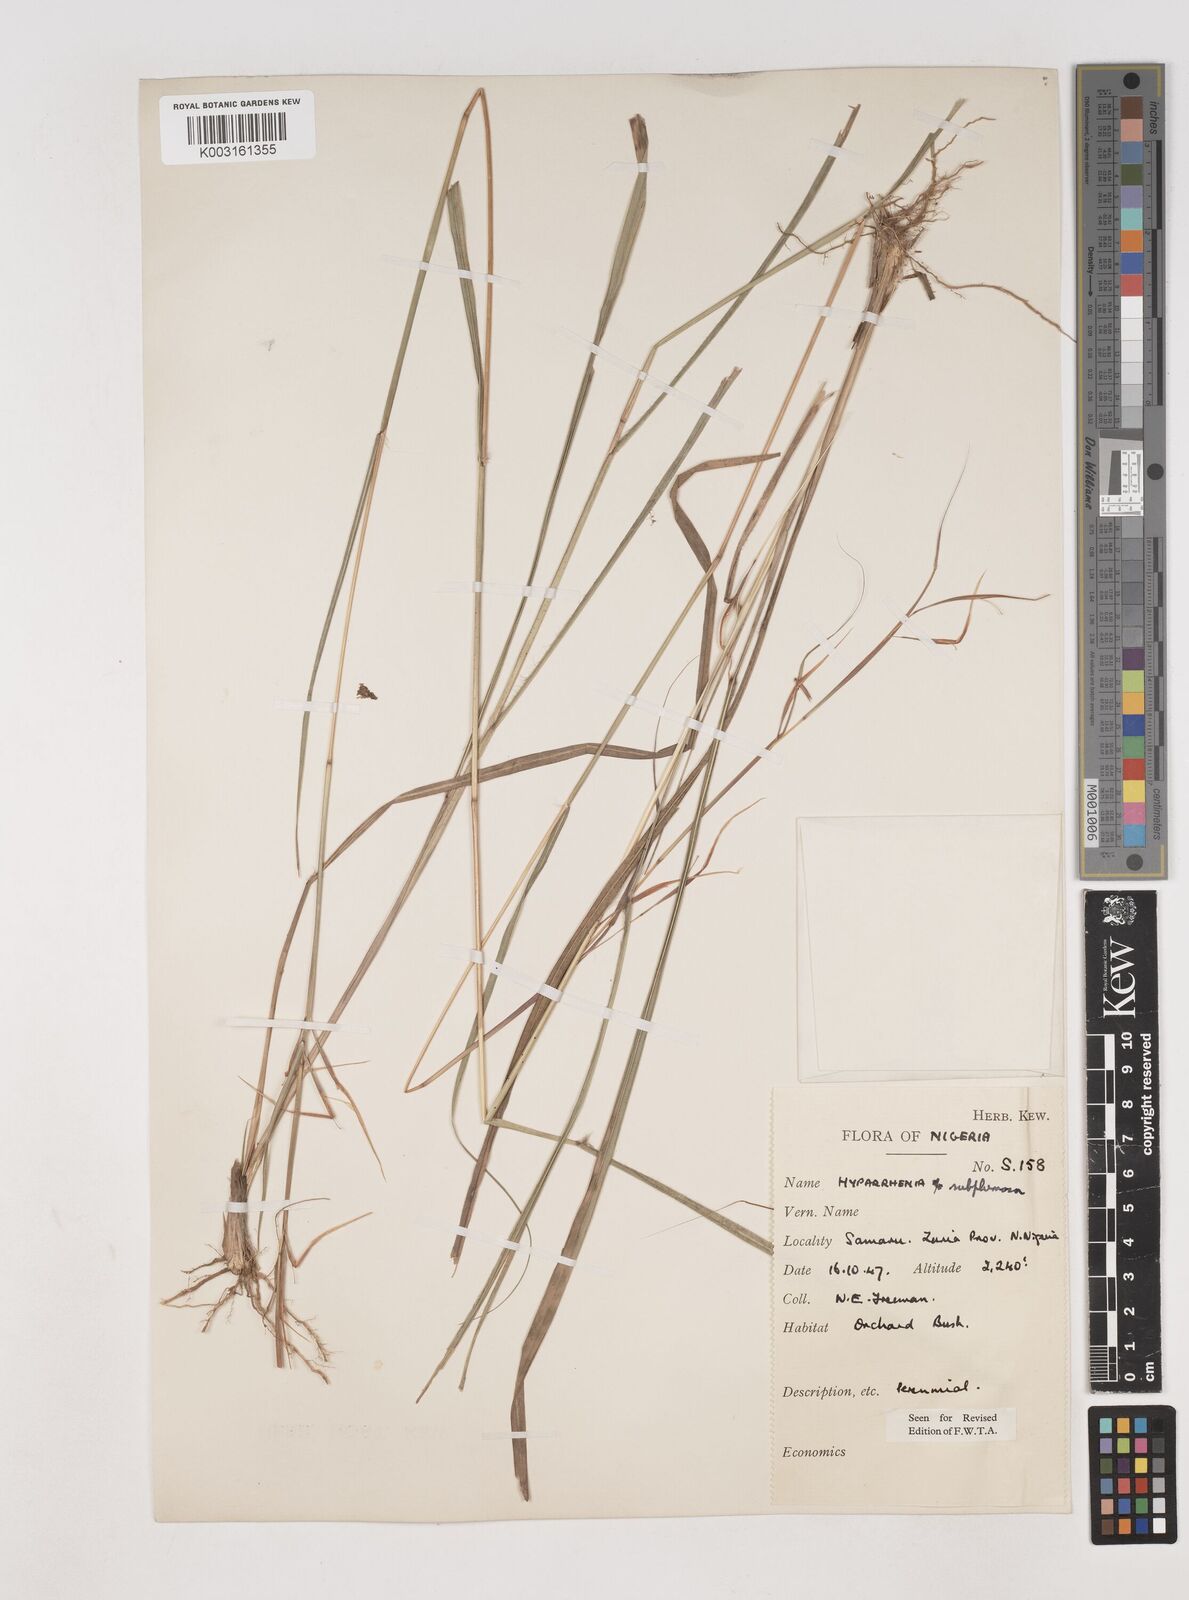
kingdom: Plantae
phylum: Tracheophyta
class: Liliopsida
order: Poales
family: Poaceae
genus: Hyparrhenia
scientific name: Hyparrhenia subplumosa
